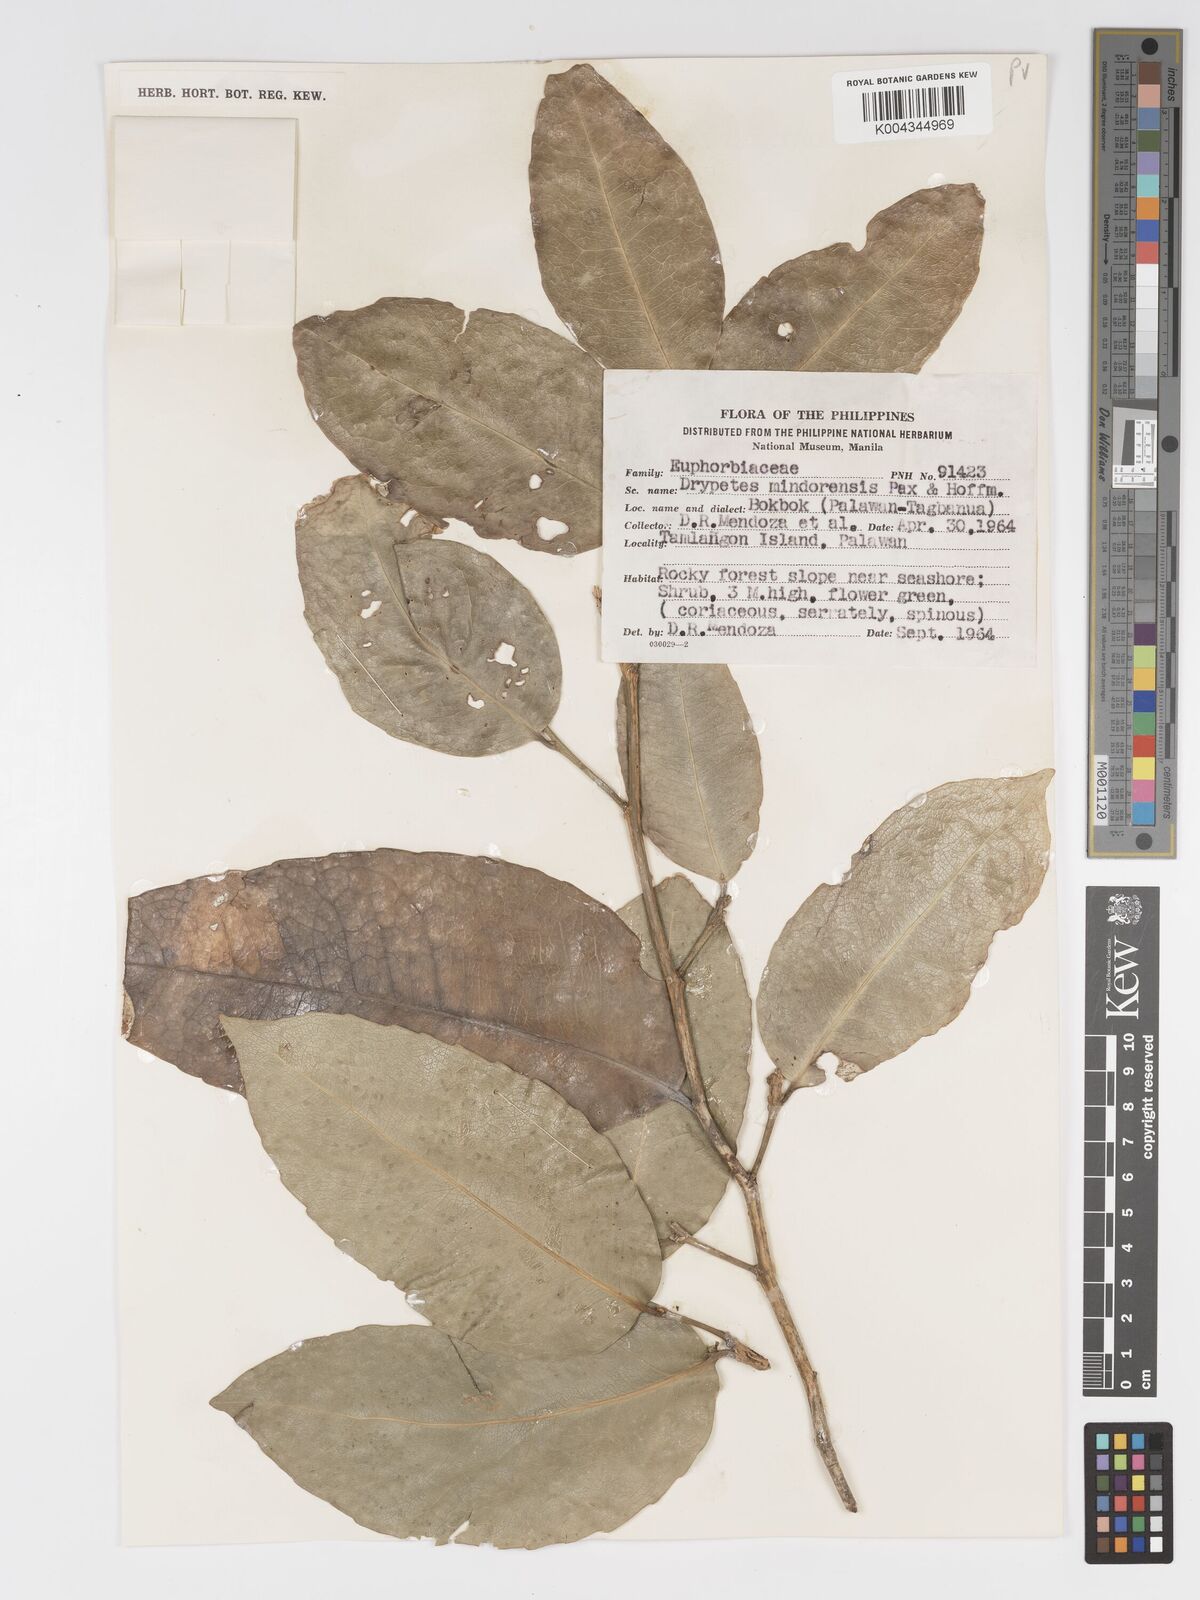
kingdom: Plantae
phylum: Tracheophyta
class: Magnoliopsida
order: Malpighiales
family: Putranjivaceae
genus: Drypetes
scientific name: Drypetes littoralis
